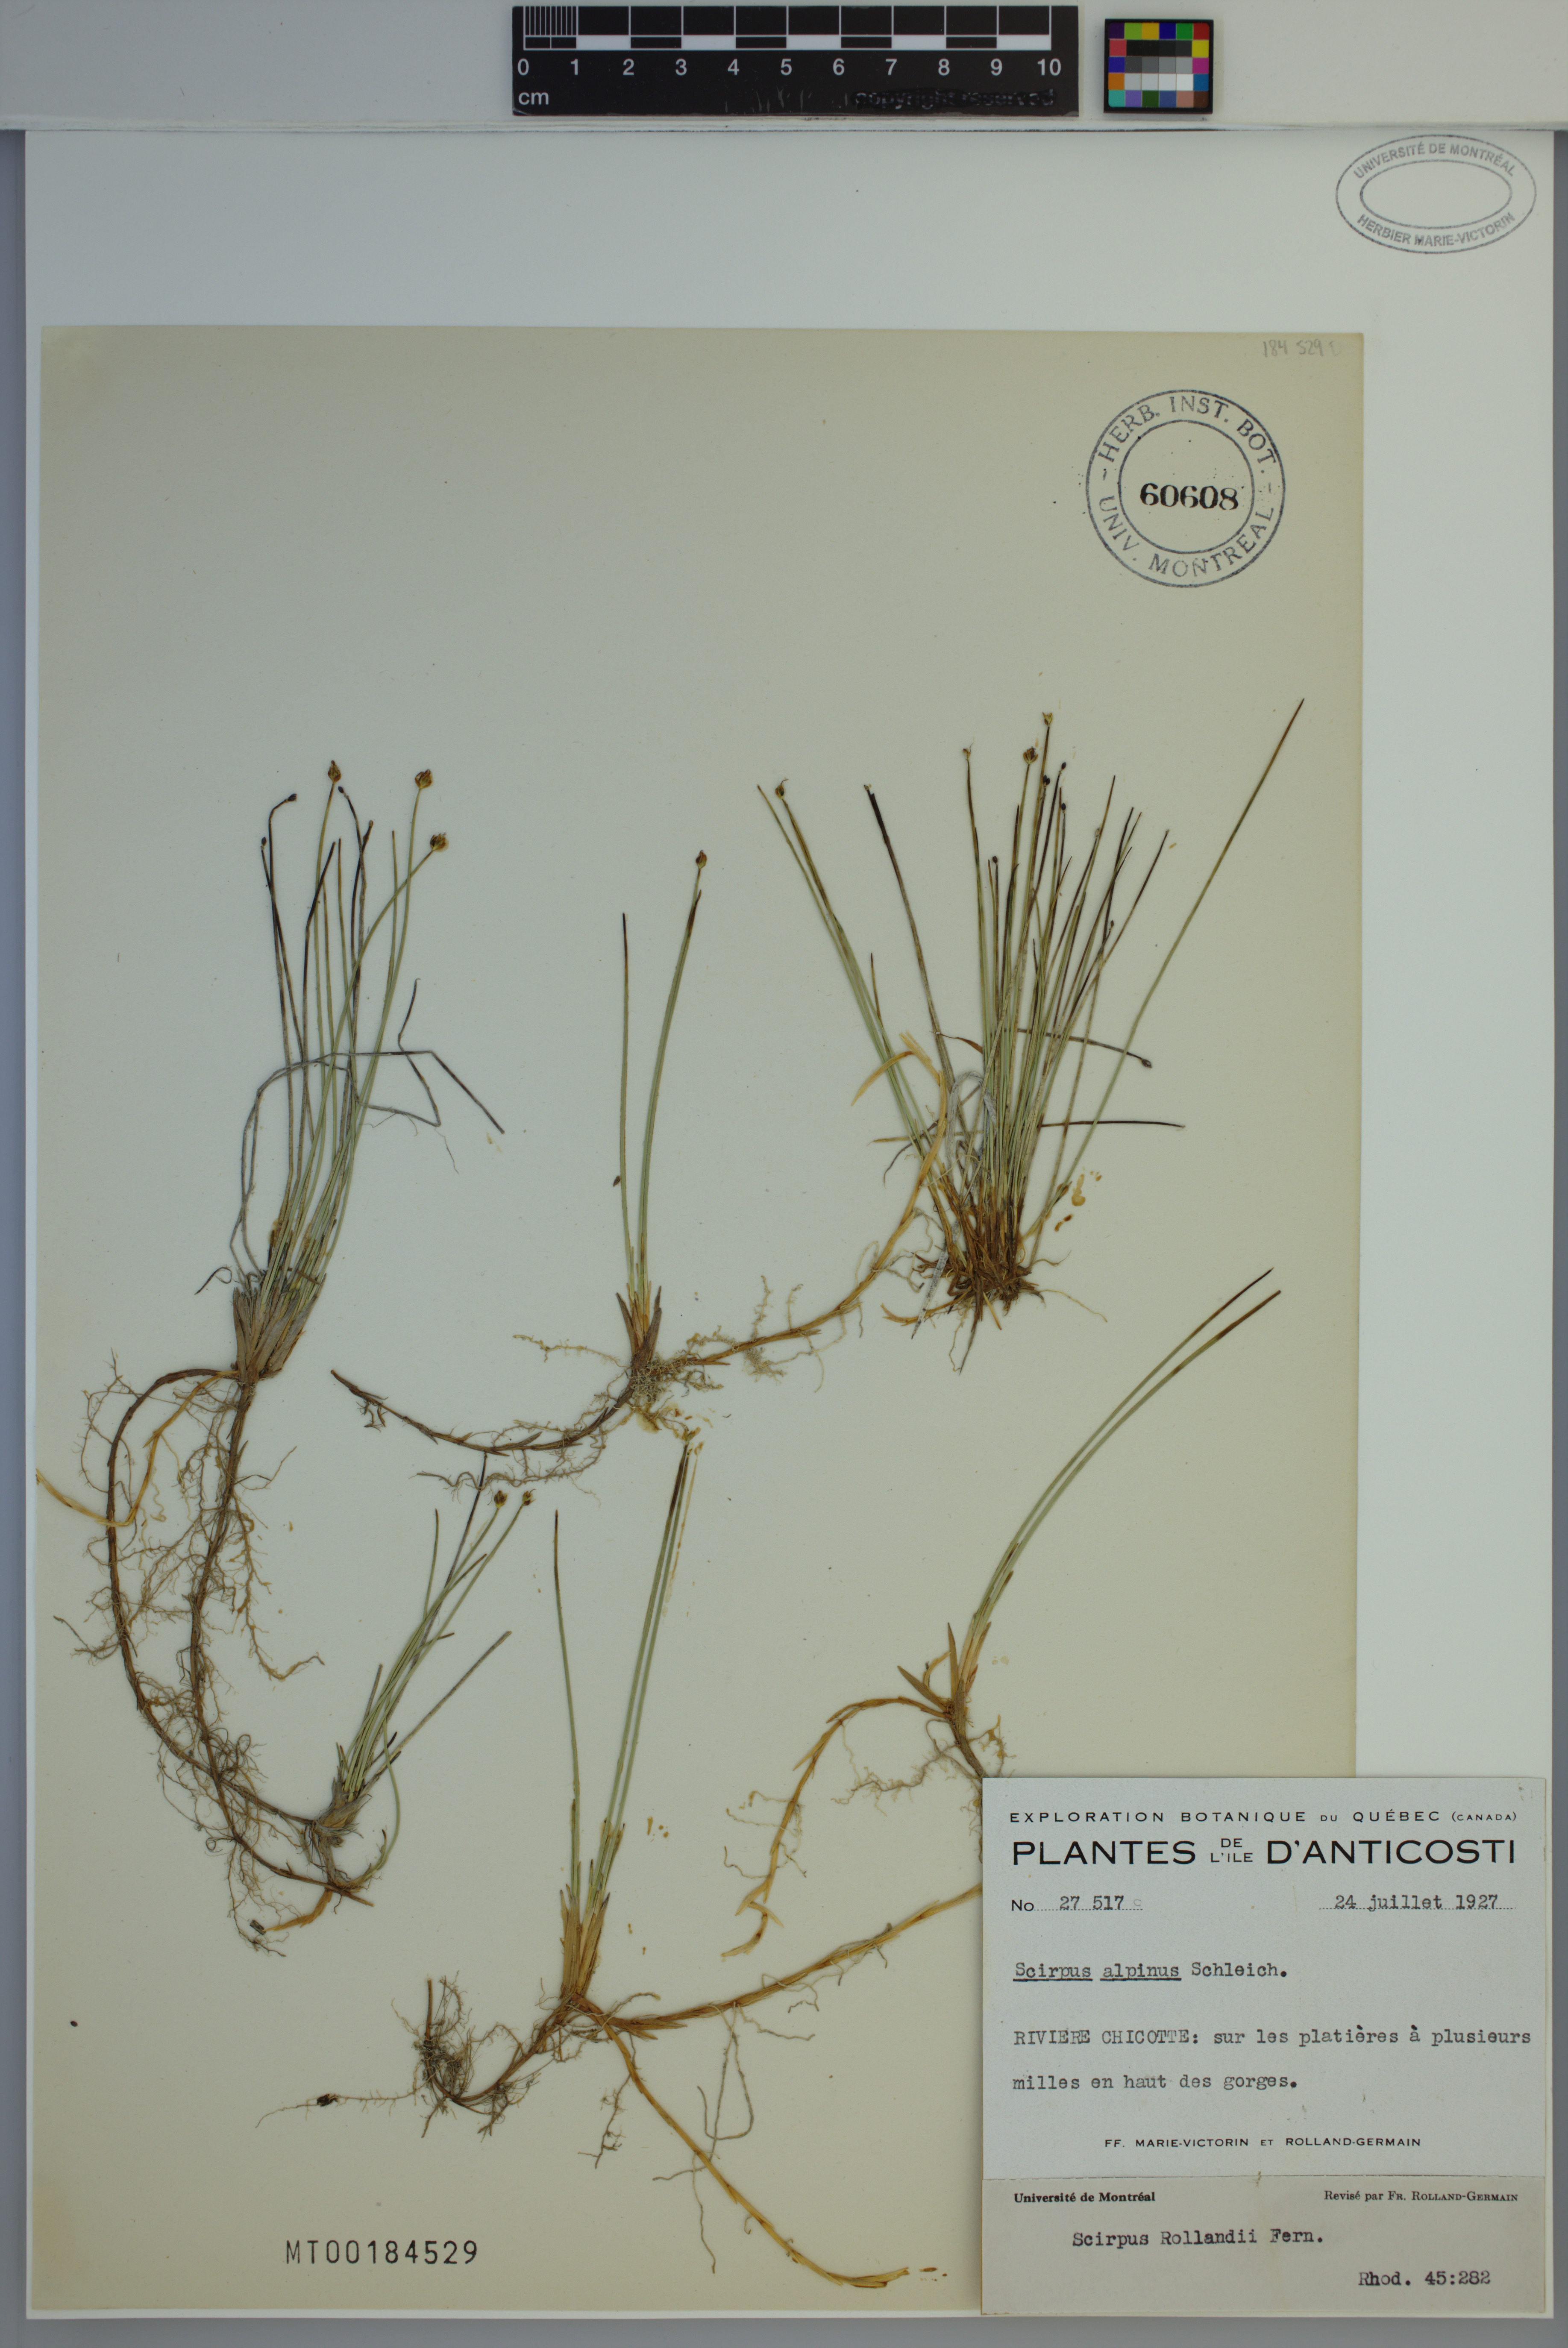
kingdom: Plantae
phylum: Tracheophyta
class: Liliopsida
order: Poales
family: Cyperaceae
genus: Trichophorum
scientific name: Trichophorum pumilum
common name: Rolland's bulrush
